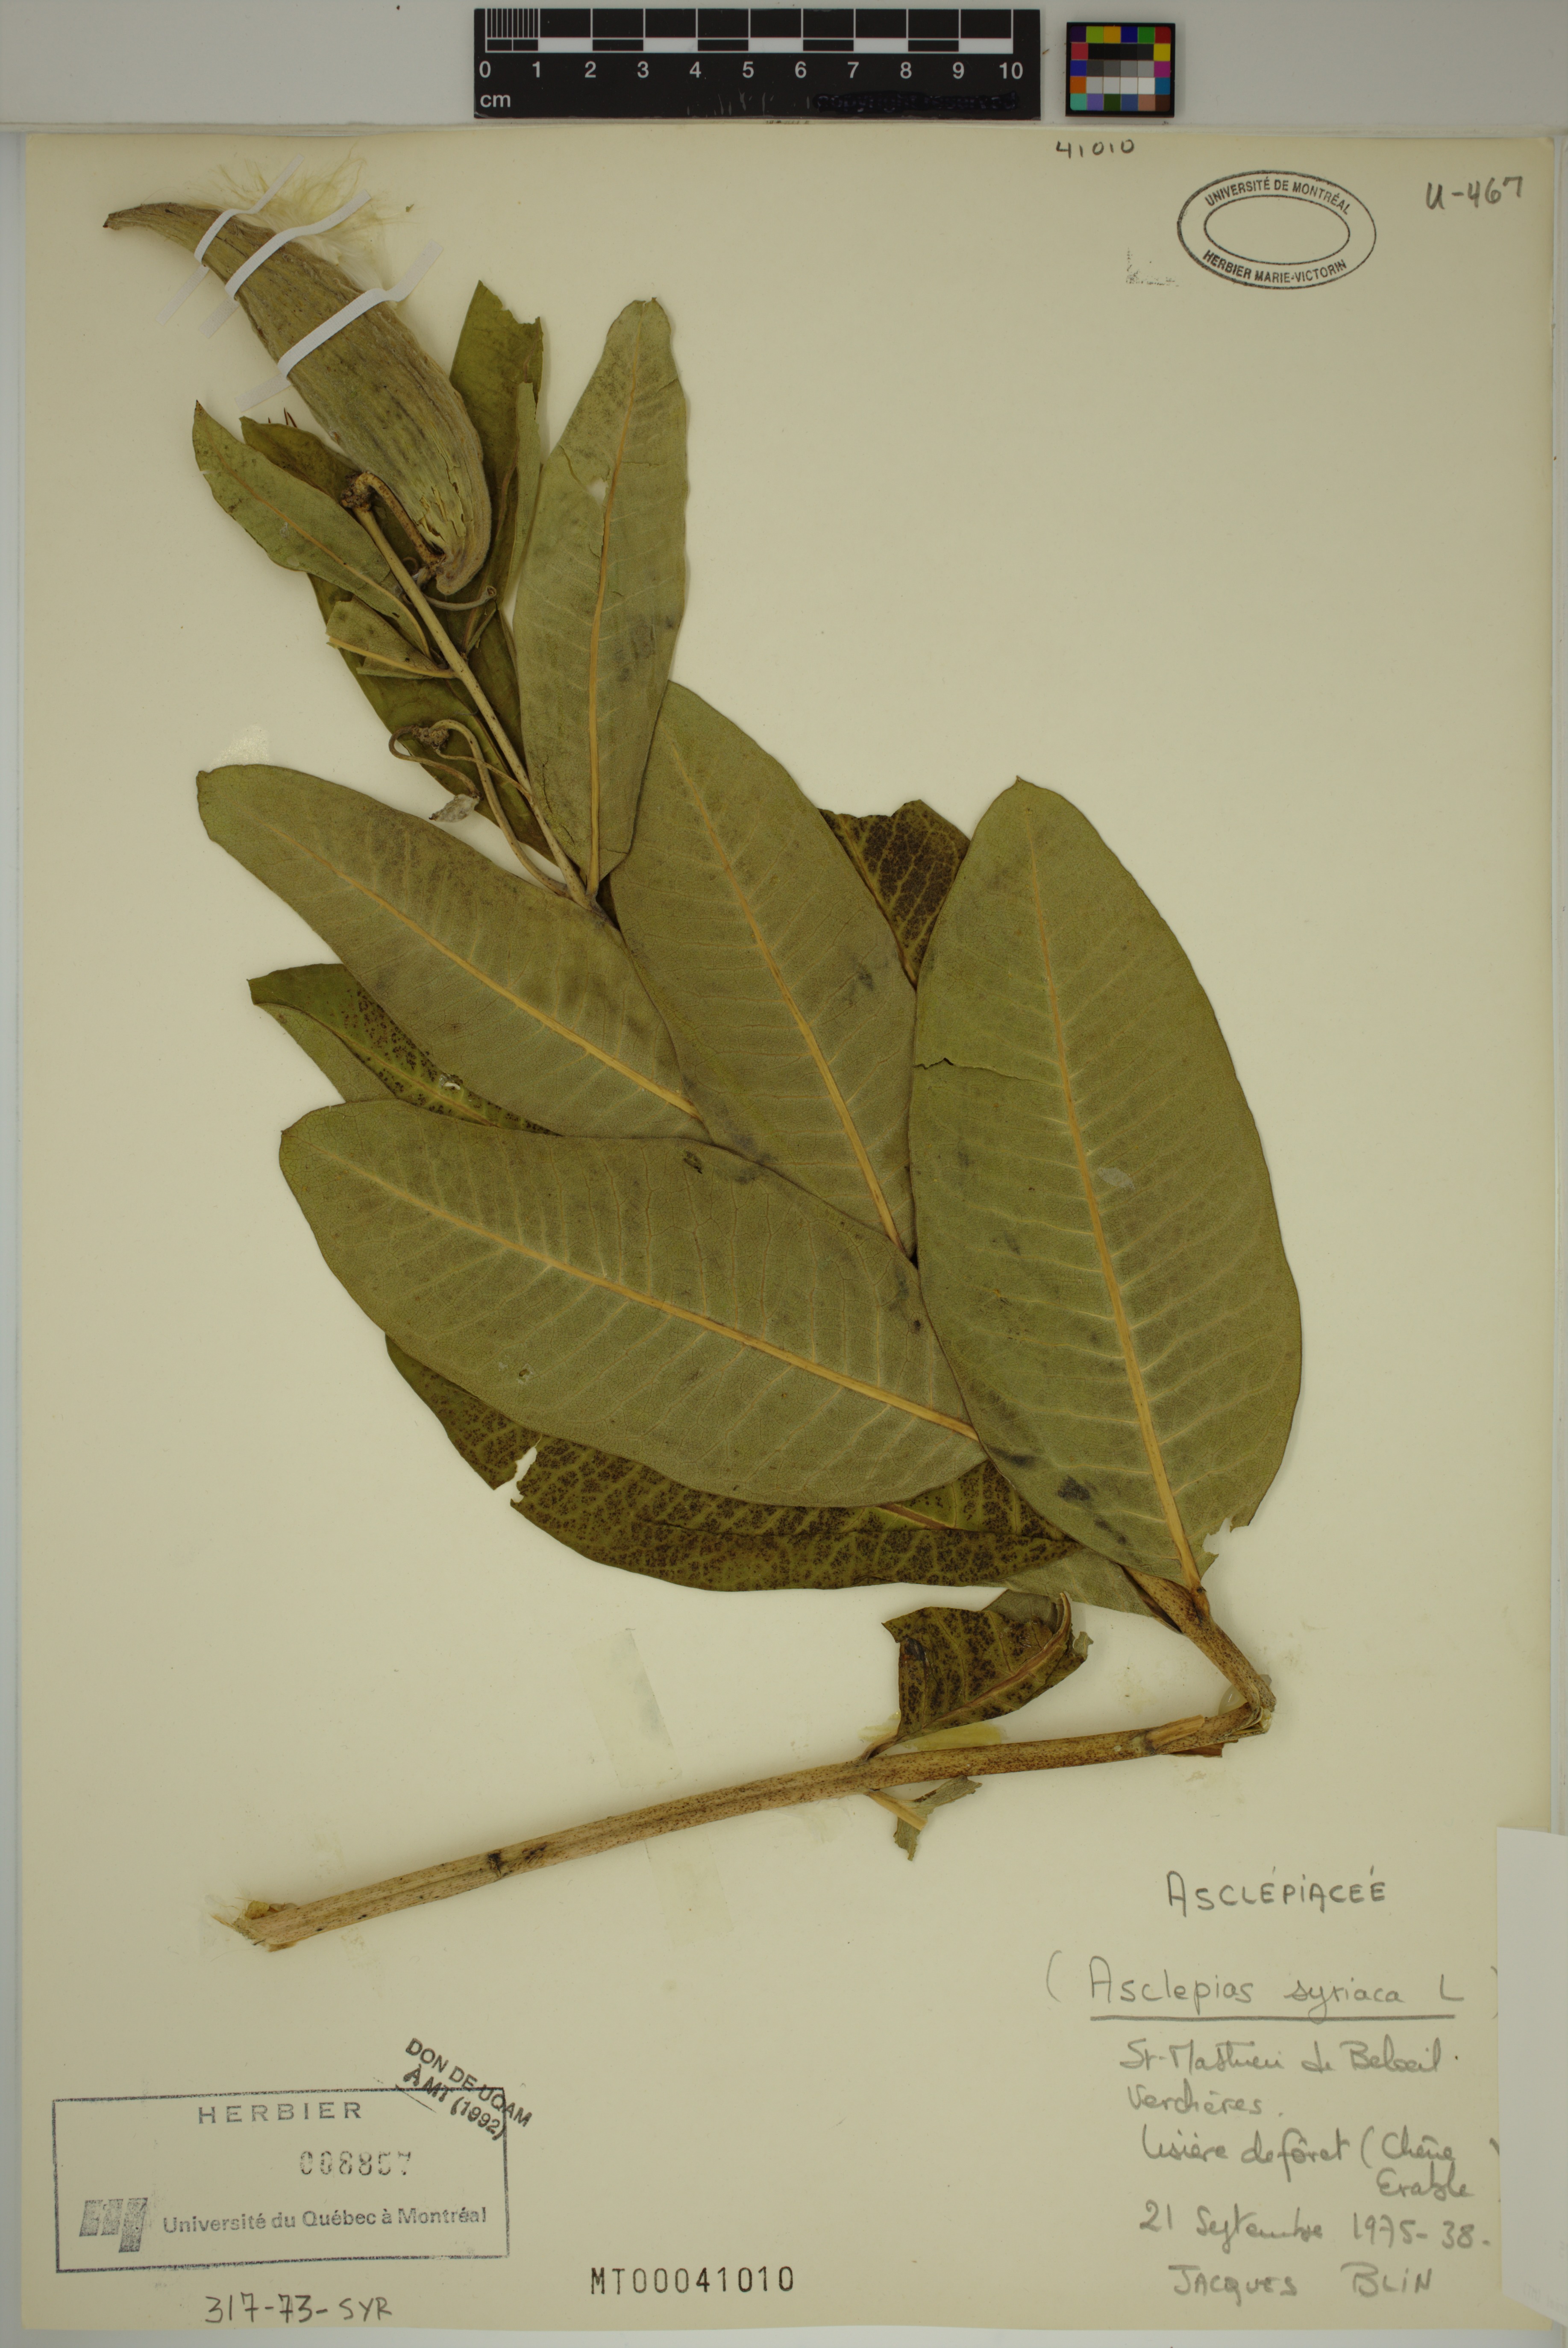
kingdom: Plantae
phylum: Tracheophyta
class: Magnoliopsida
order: Gentianales
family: Apocynaceae
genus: Asclepias
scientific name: Asclepias syriaca
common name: Common milkweed
